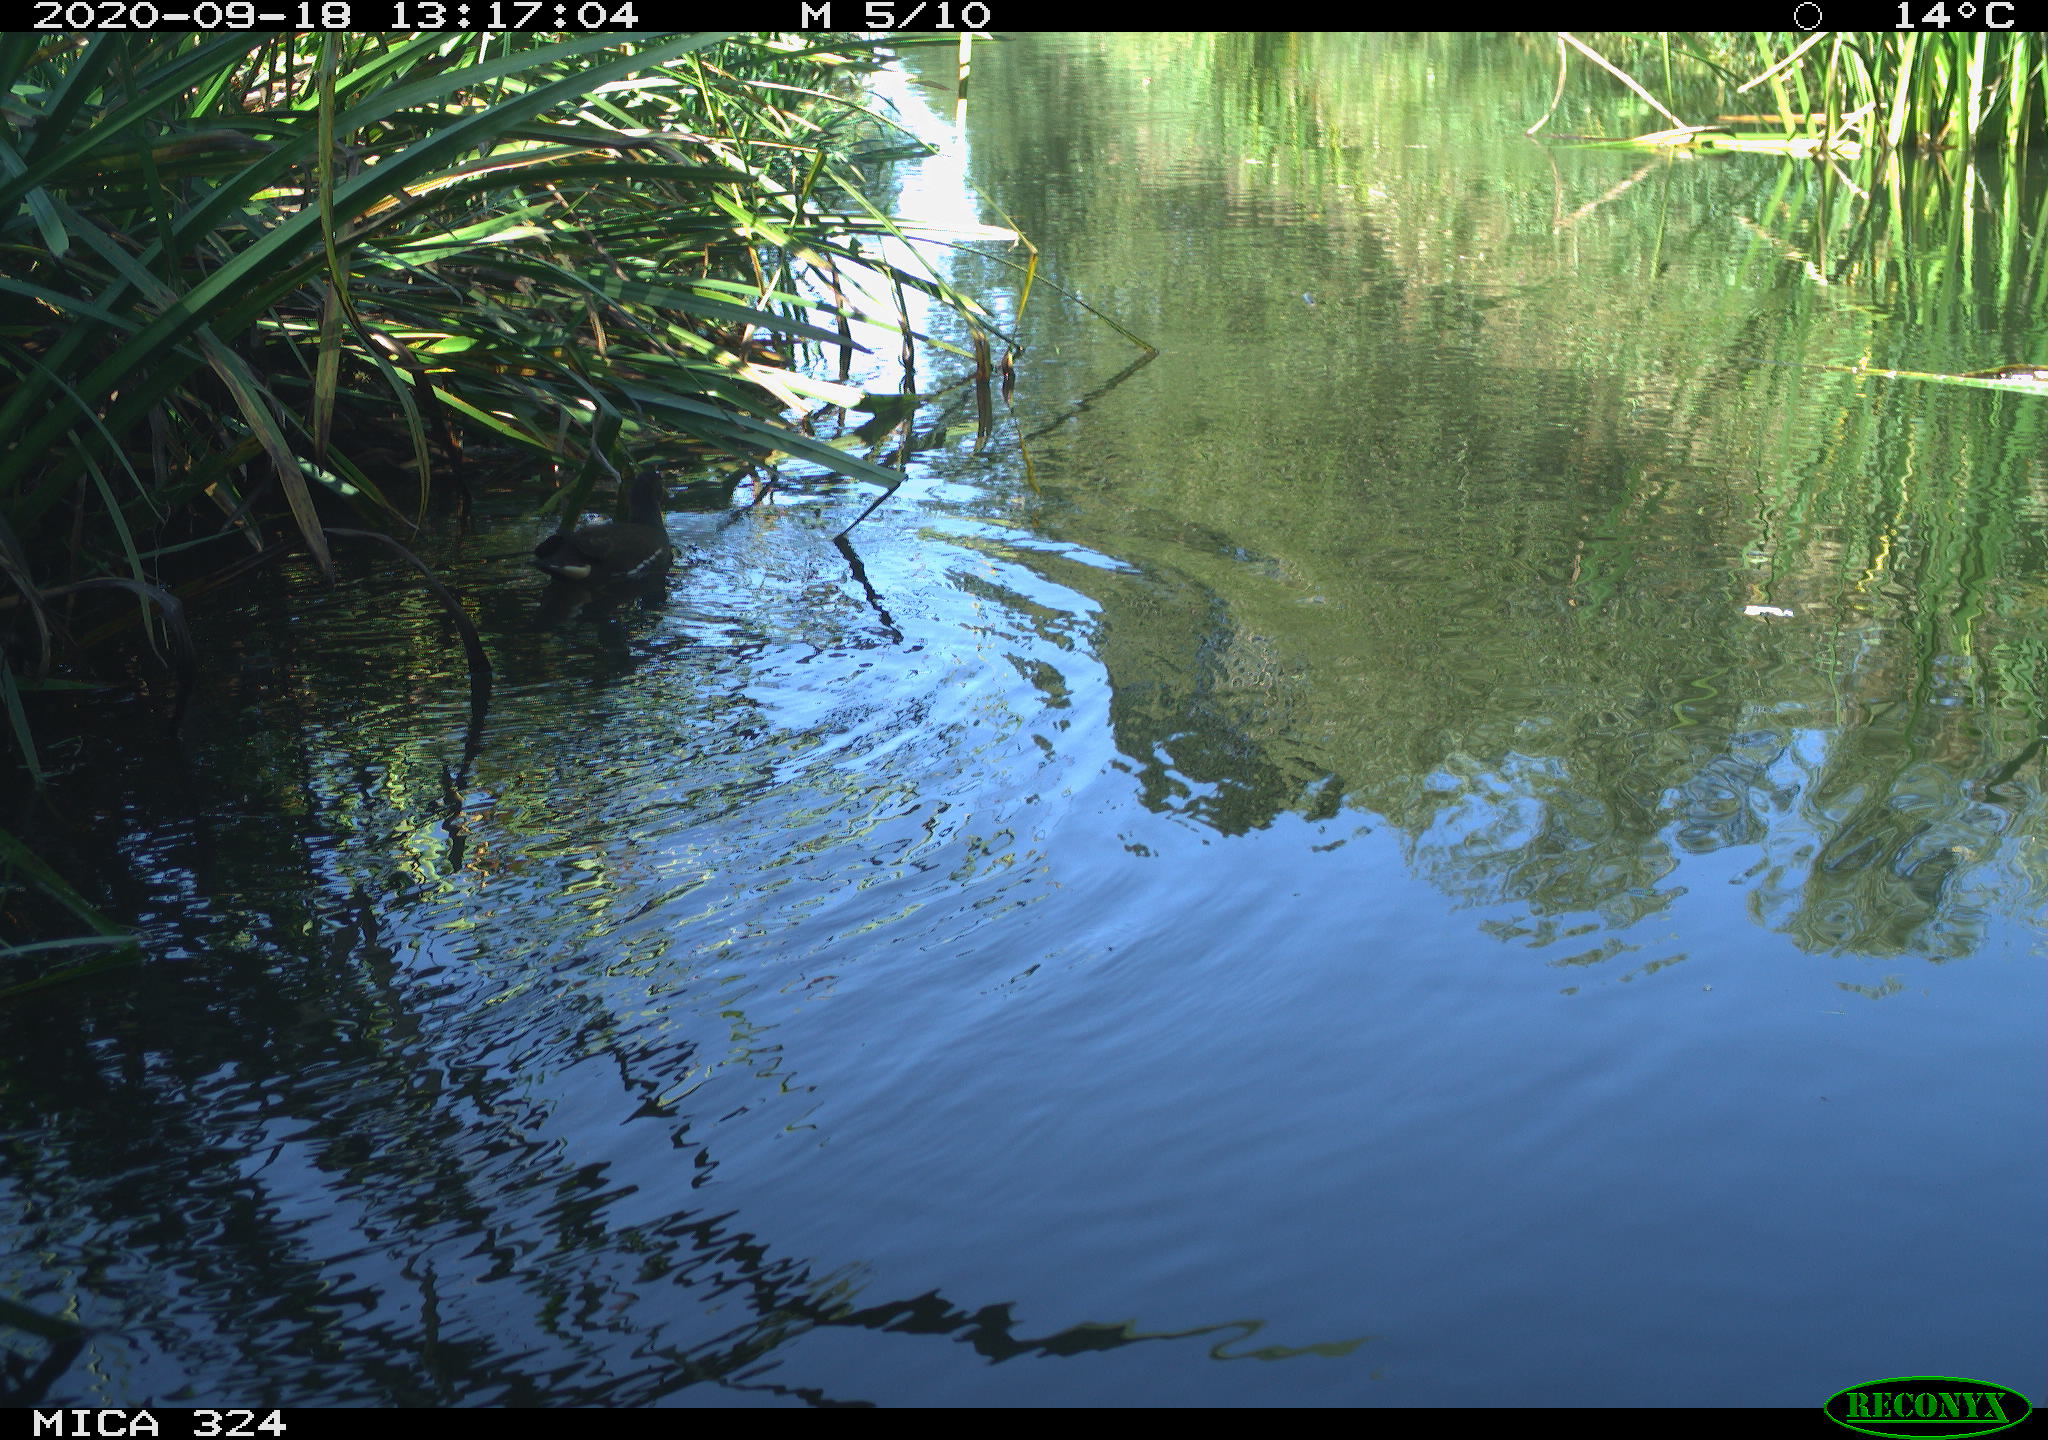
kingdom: Animalia
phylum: Chordata
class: Aves
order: Gruiformes
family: Rallidae
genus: Gallinula
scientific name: Gallinula chloropus
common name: Common moorhen
